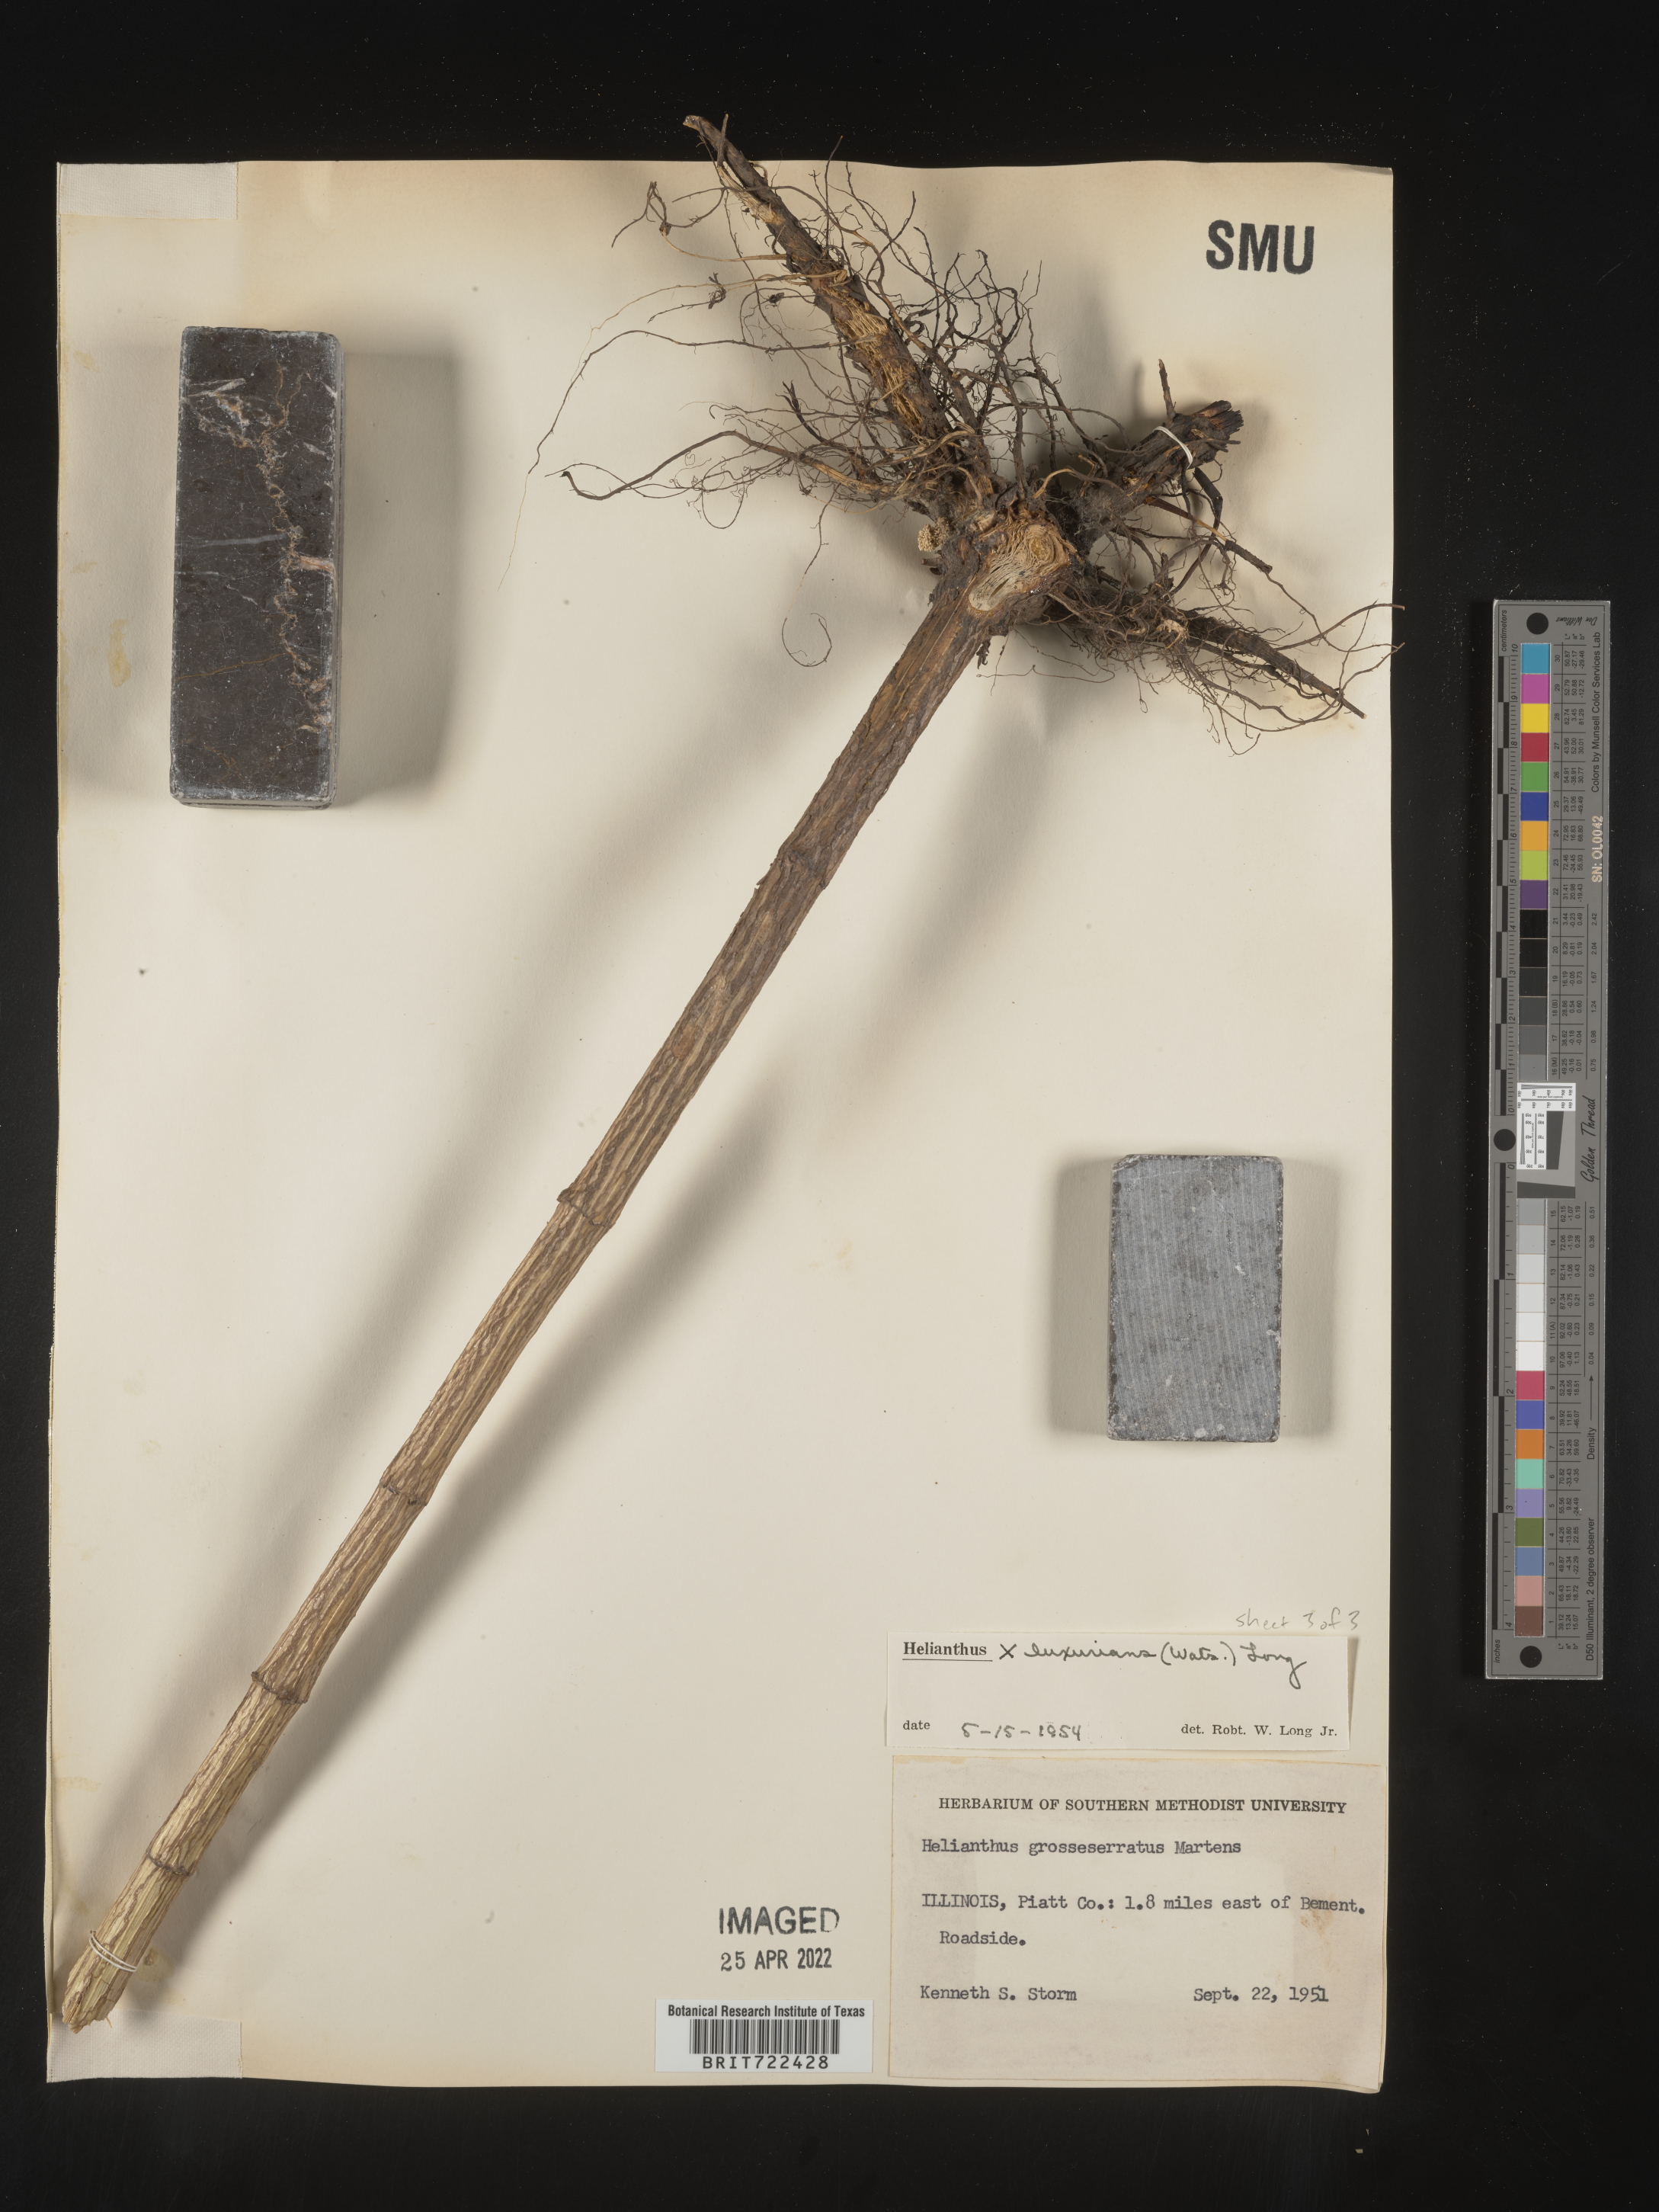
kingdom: Plantae
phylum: Tracheophyta
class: Magnoliopsida
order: Asterales
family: Asteraceae
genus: Helianthus
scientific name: Helianthus
